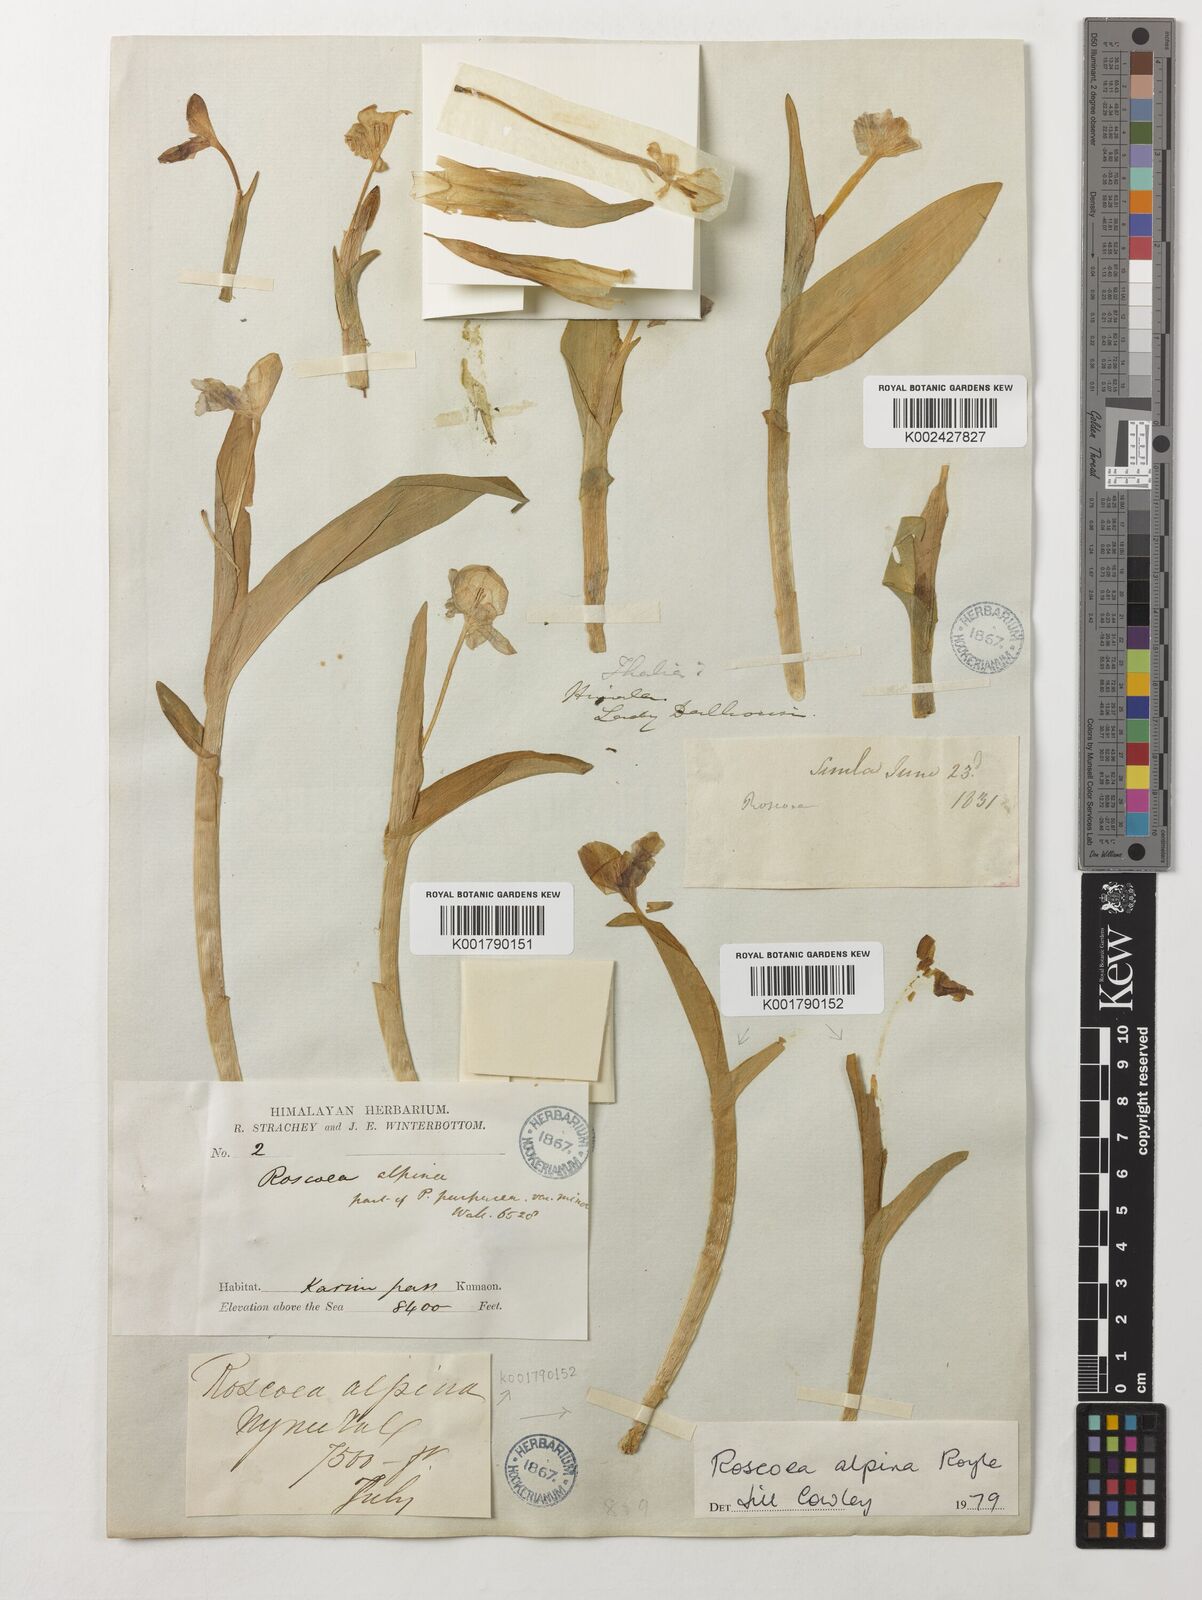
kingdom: Plantae
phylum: Tracheophyta
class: Liliopsida
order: Zingiberales
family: Zingiberaceae
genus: Roscoea
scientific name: Roscoea alpina
